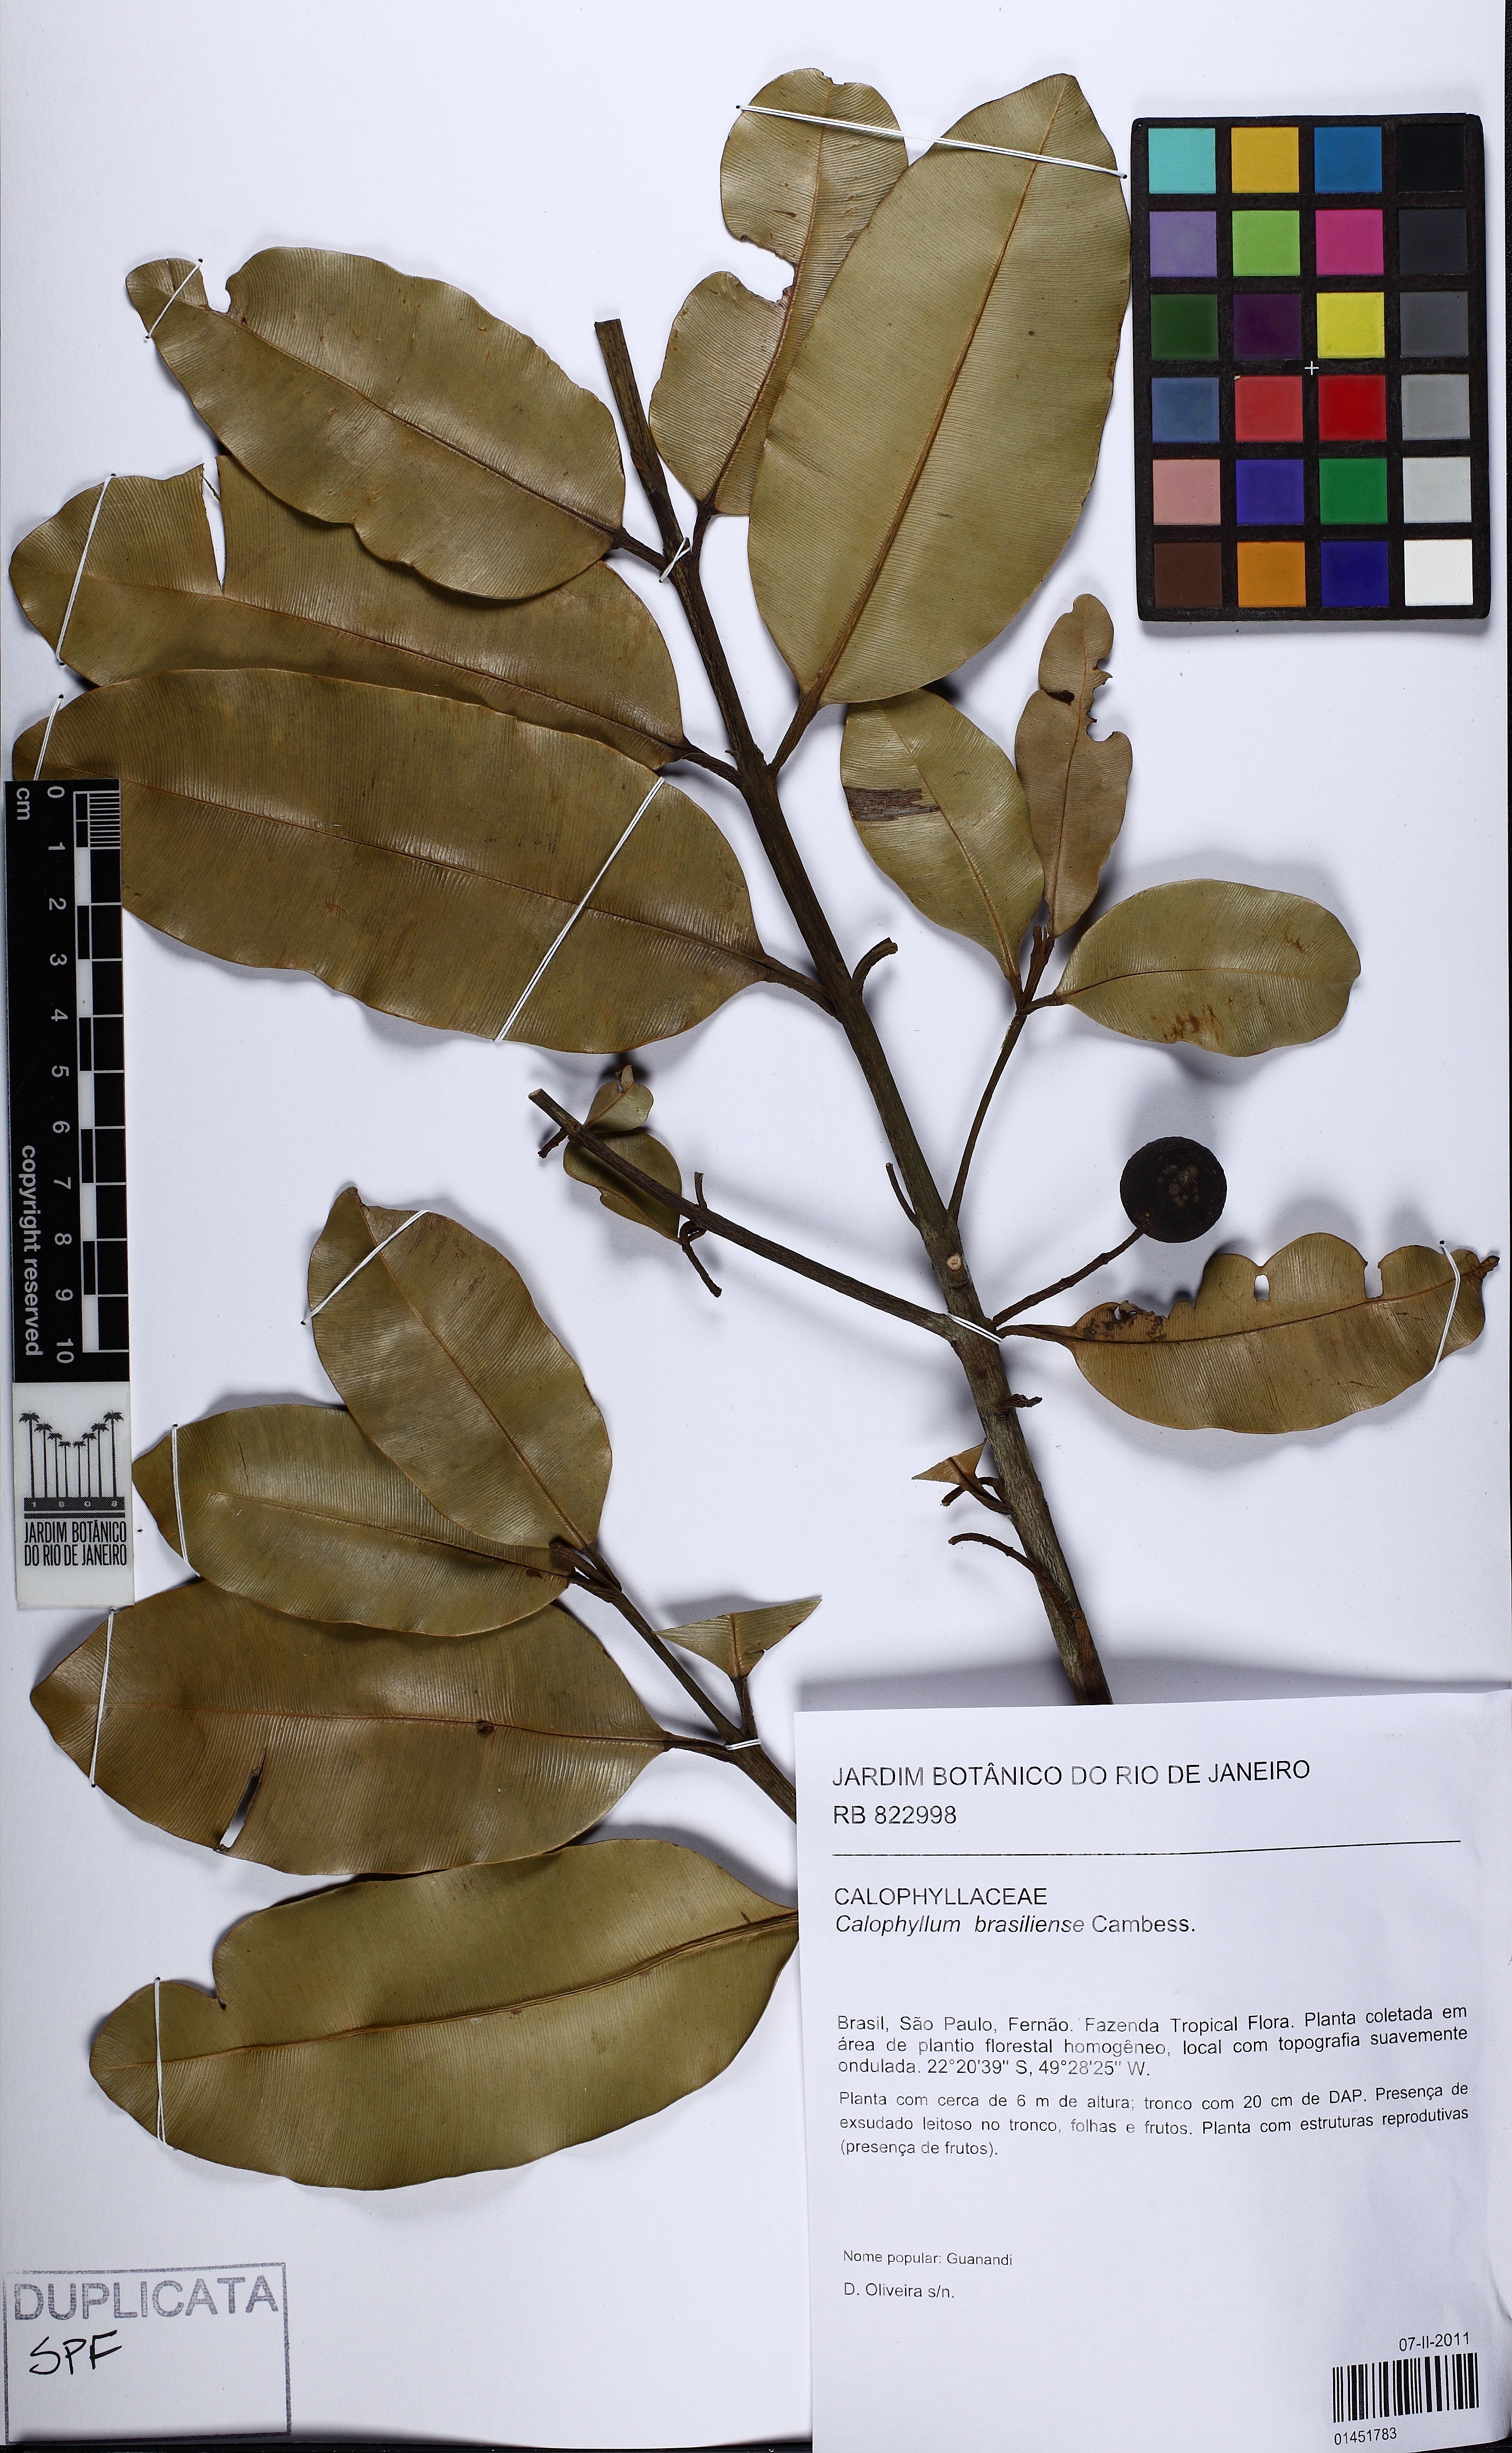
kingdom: Plantae
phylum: Tracheophyta
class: Magnoliopsida
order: Malpighiales
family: Calophyllaceae
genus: Calophyllum
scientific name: Calophyllum brasiliense
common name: Santa maria
